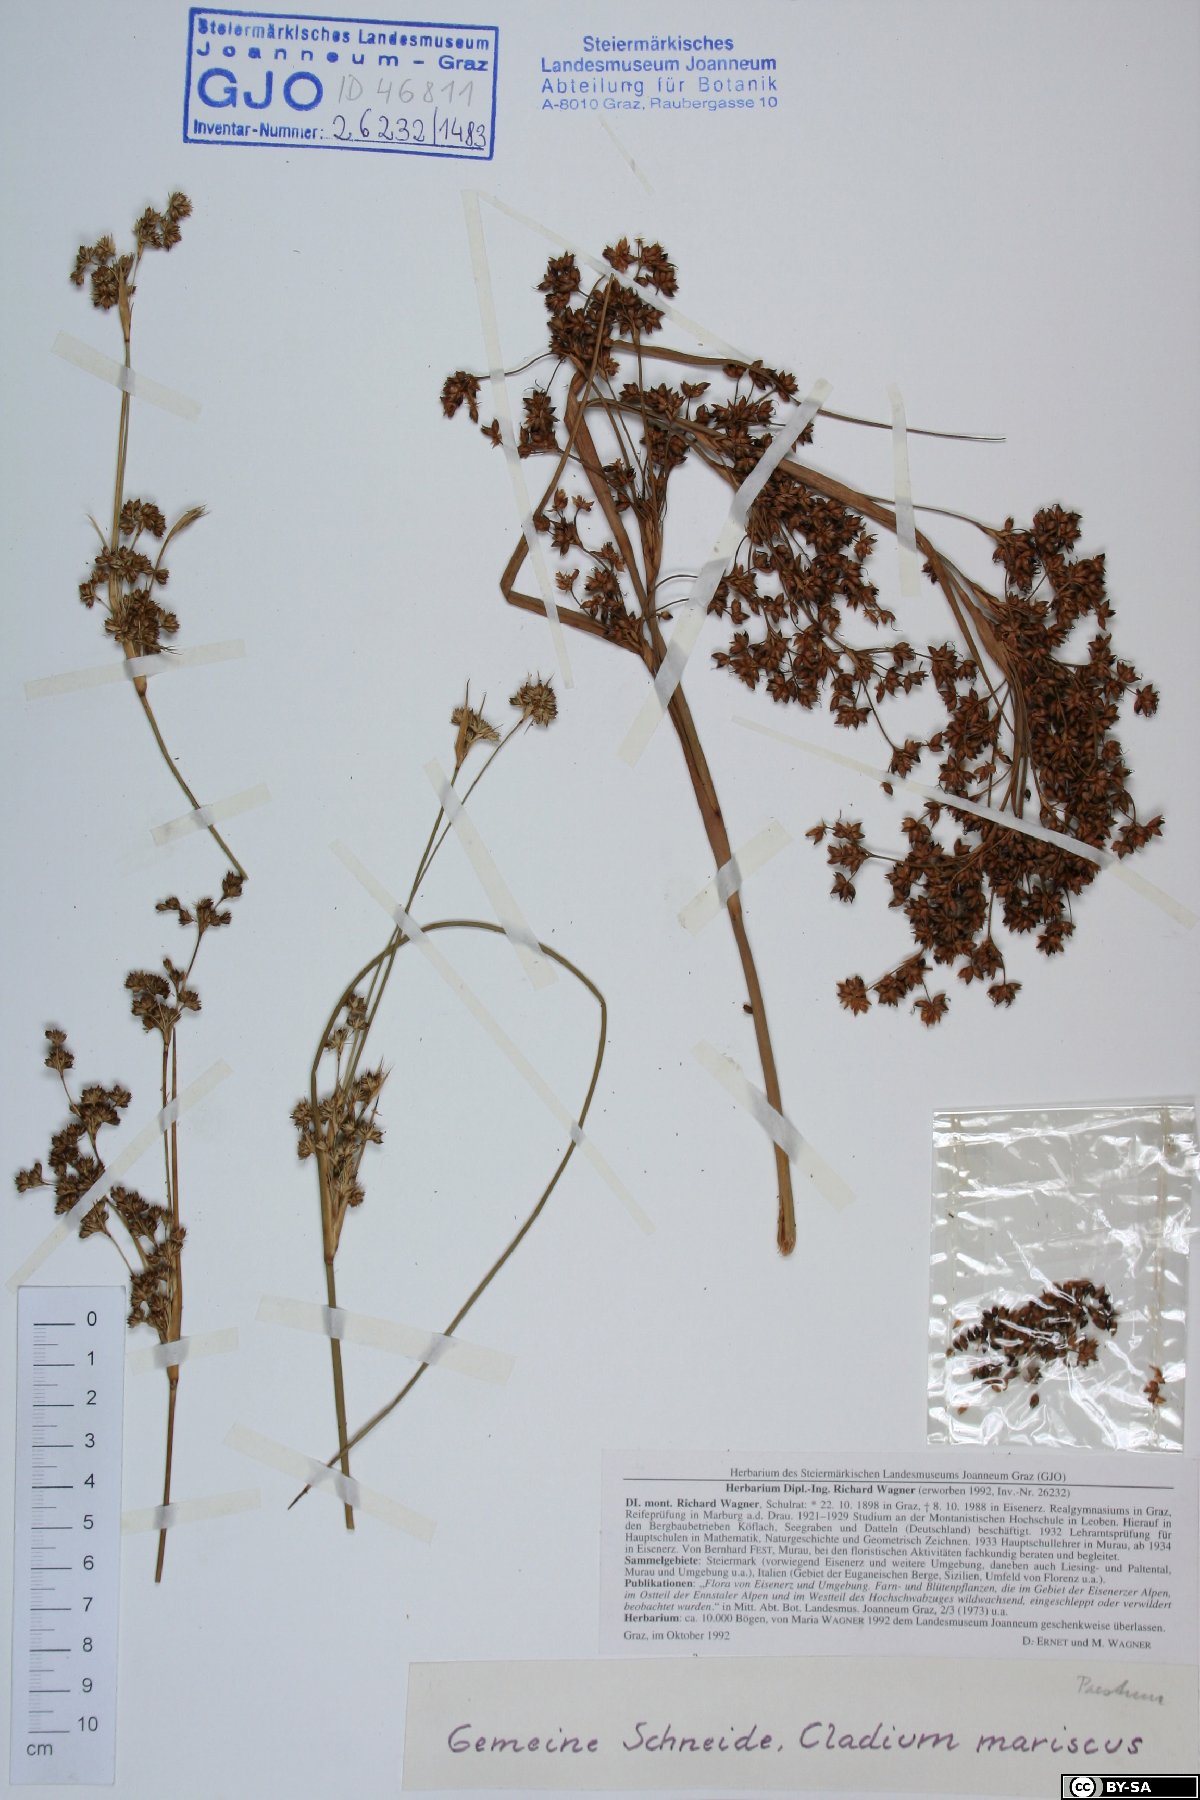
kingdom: Plantae
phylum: Tracheophyta
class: Liliopsida
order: Poales
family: Cyperaceae
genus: Cladium
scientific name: Cladium mariscus
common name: Great fen-sedge
